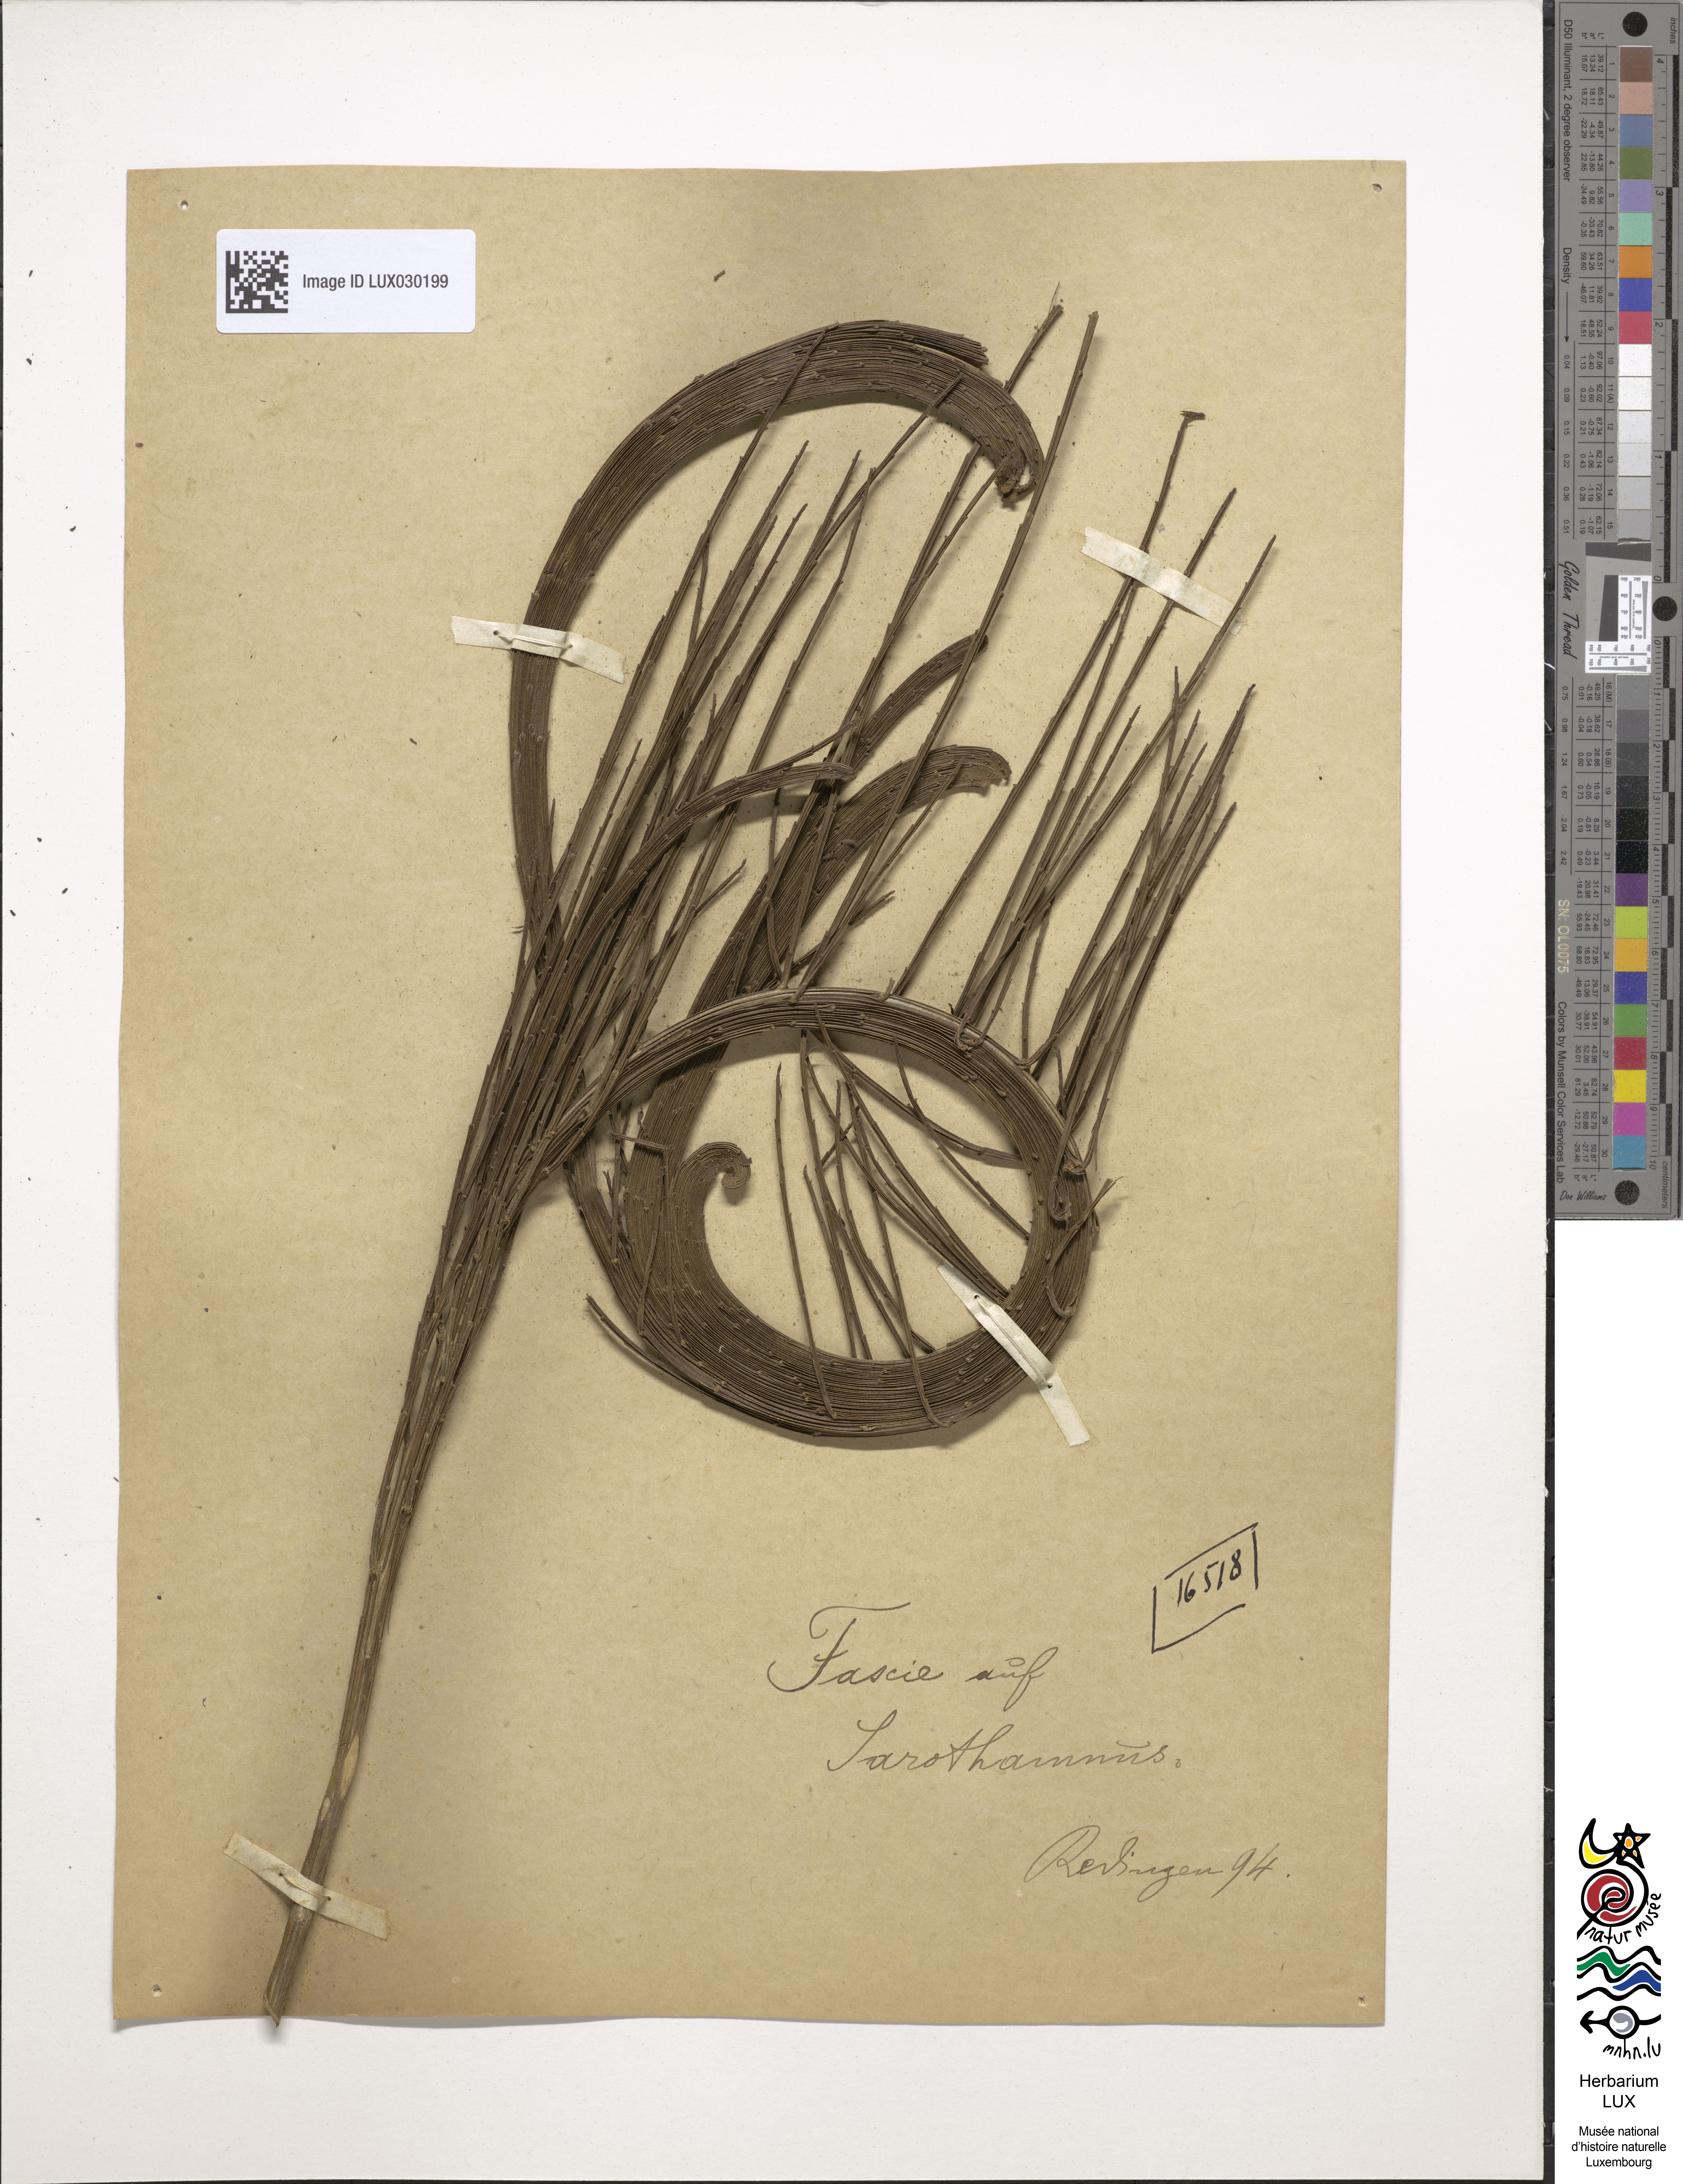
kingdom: Plantae
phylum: Tracheophyta
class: Magnoliopsida
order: Fabales
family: Fabaceae
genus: Cytisus
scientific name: Cytisus
